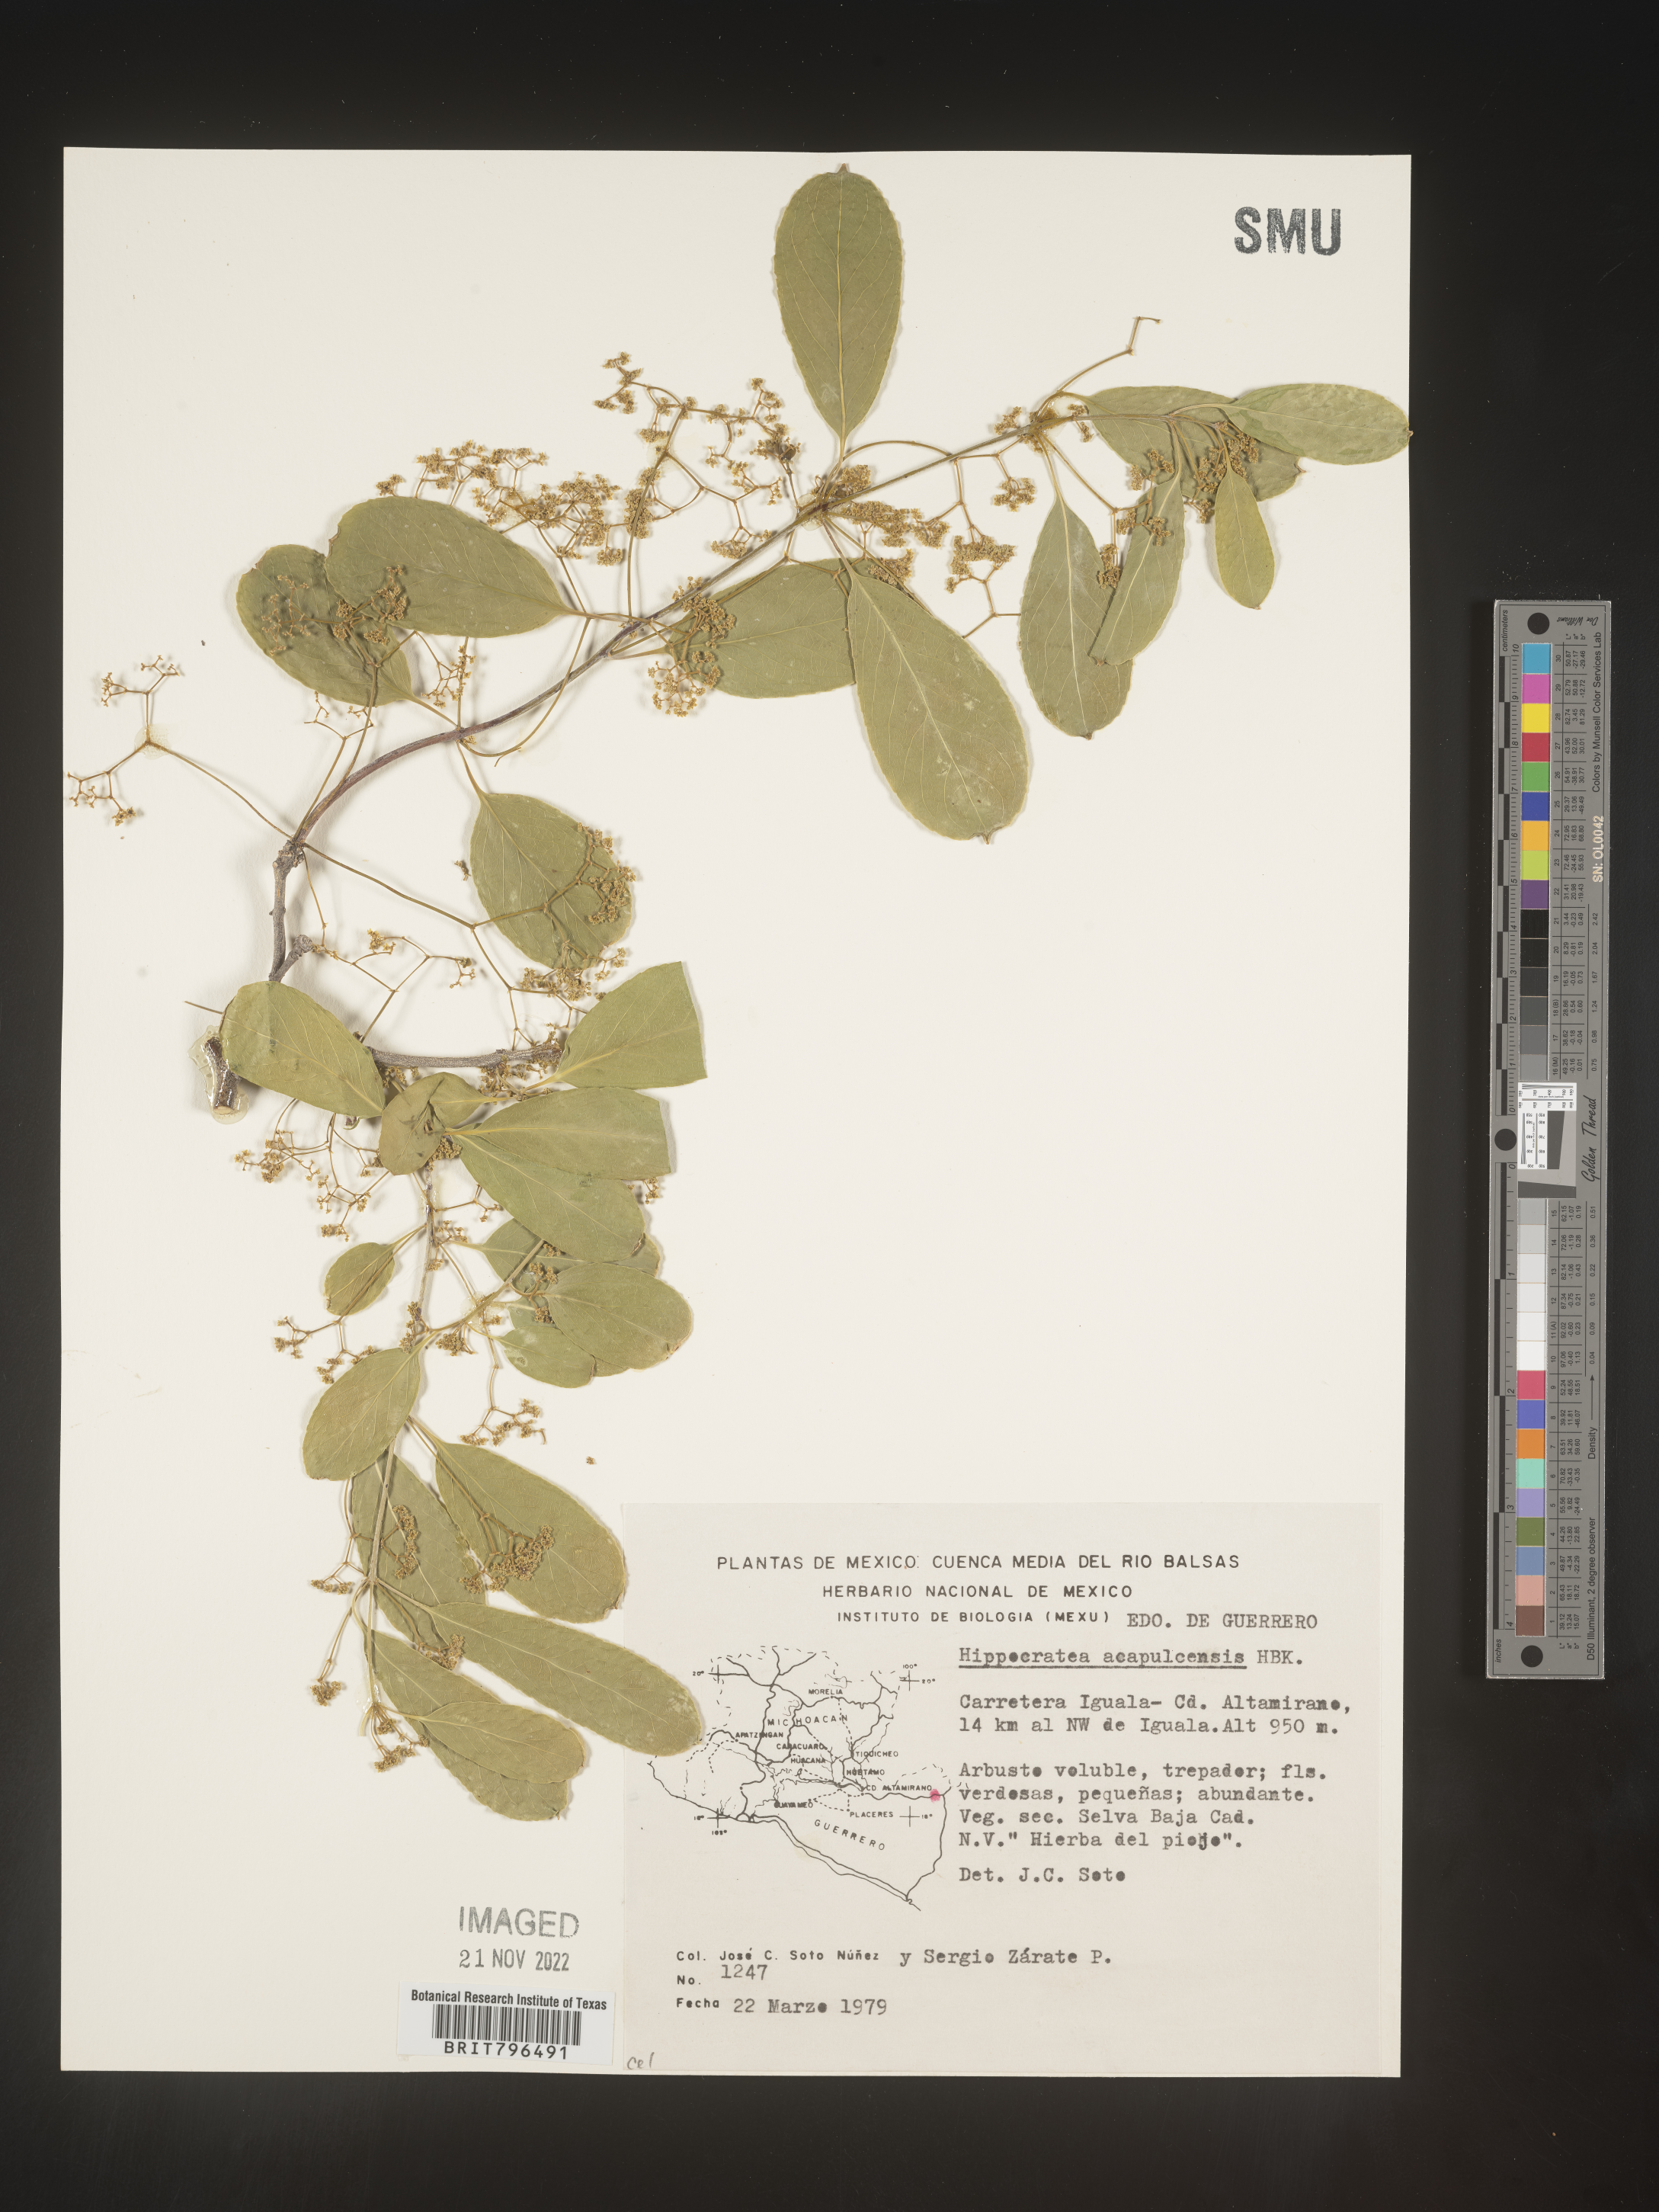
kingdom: Plantae
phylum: Tracheophyta
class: Magnoliopsida
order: Celastrales
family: Celastraceae
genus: Hippocratea
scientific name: Hippocratea
